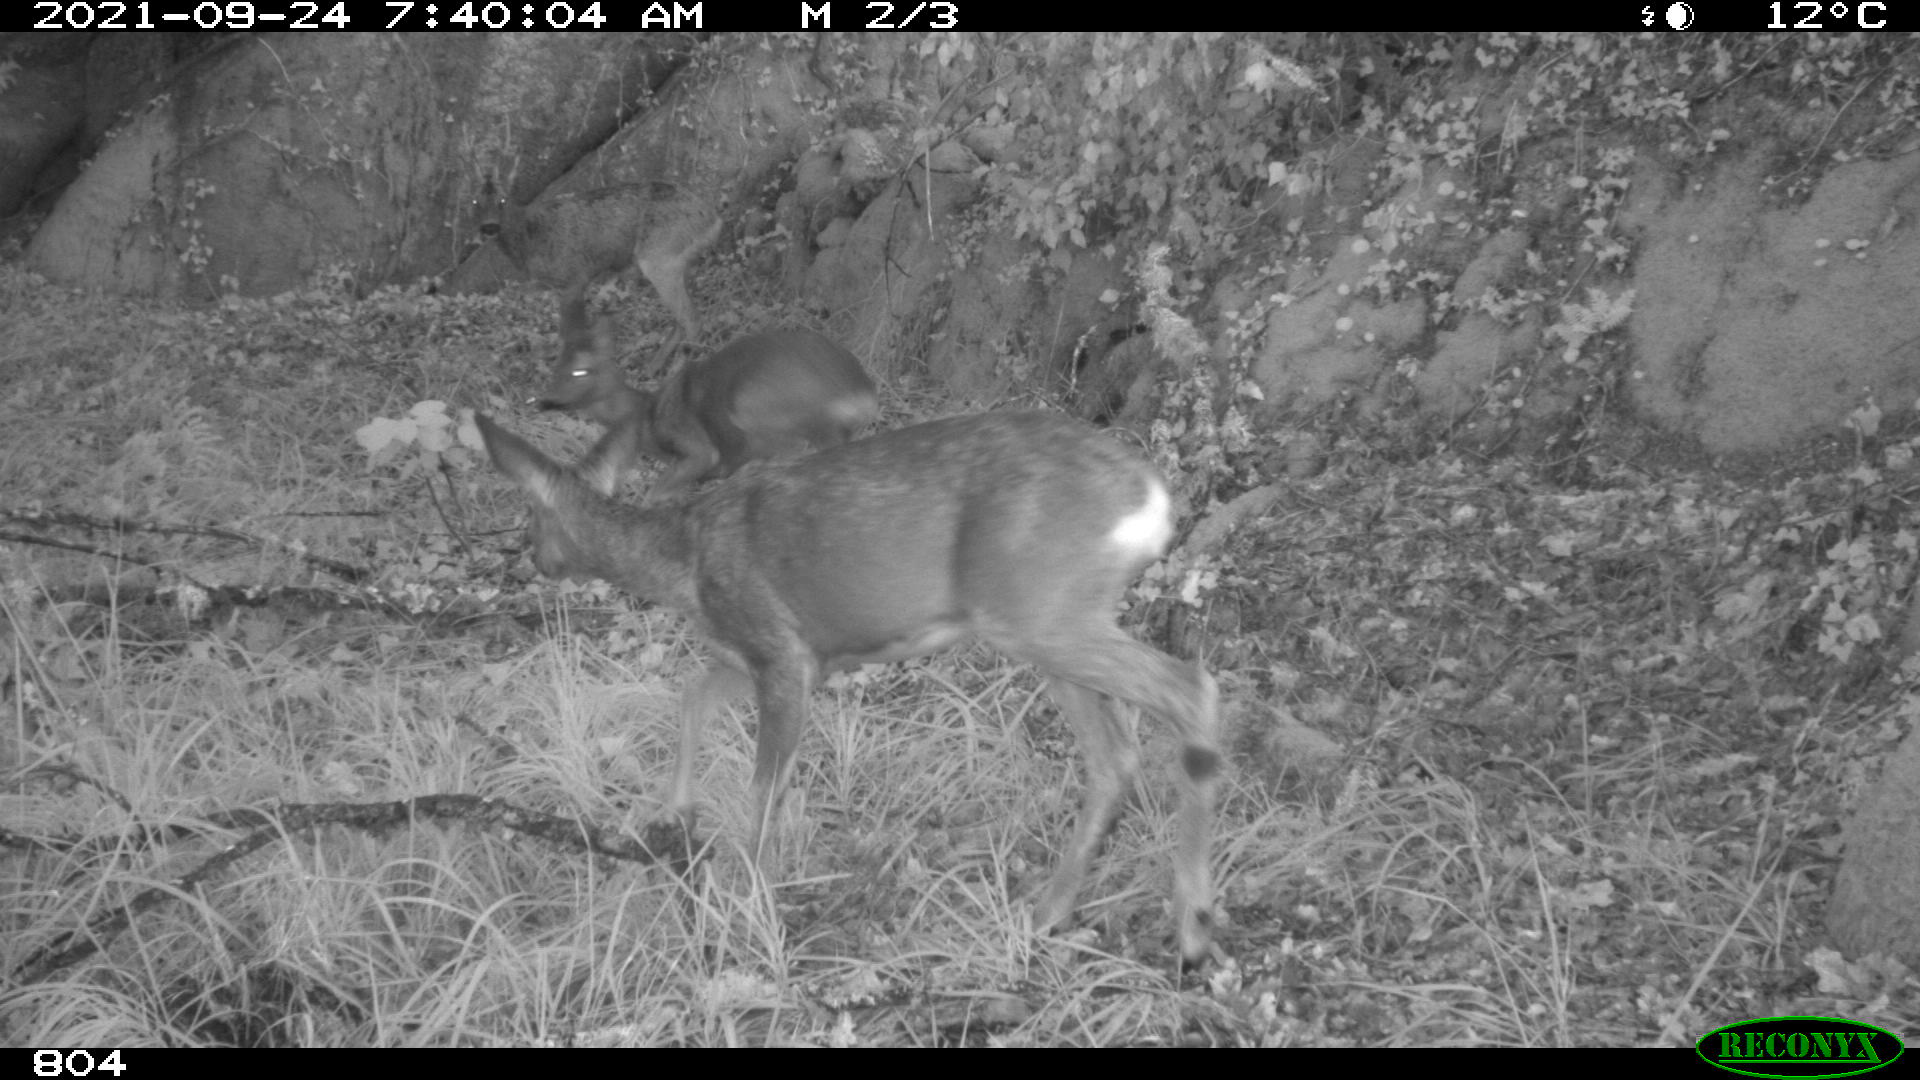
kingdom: Animalia
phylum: Chordata
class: Mammalia
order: Artiodactyla
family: Cervidae
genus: Capreolus
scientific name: Capreolus capreolus
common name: Western roe deer
